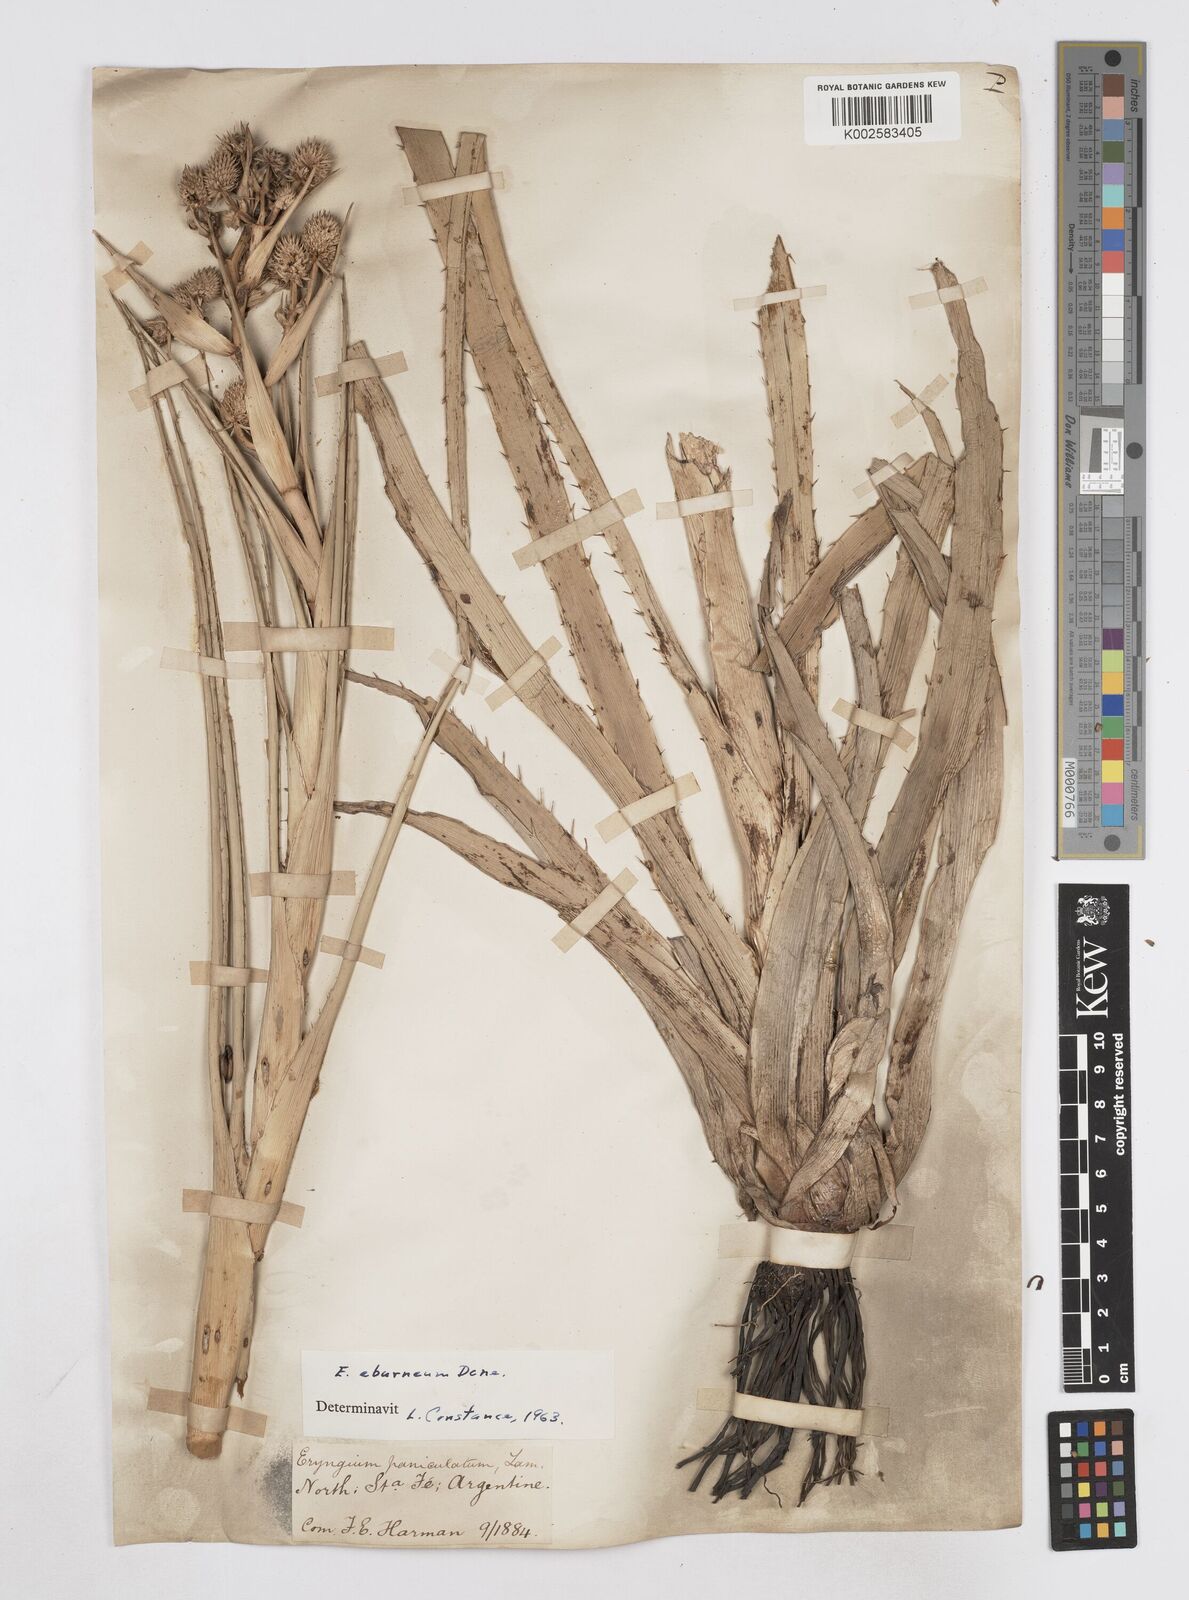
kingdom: Plantae
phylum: Tracheophyta
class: Magnoliopsida
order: Apiales
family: Apiaceae
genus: Eryngium
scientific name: Eryngium eburneum
